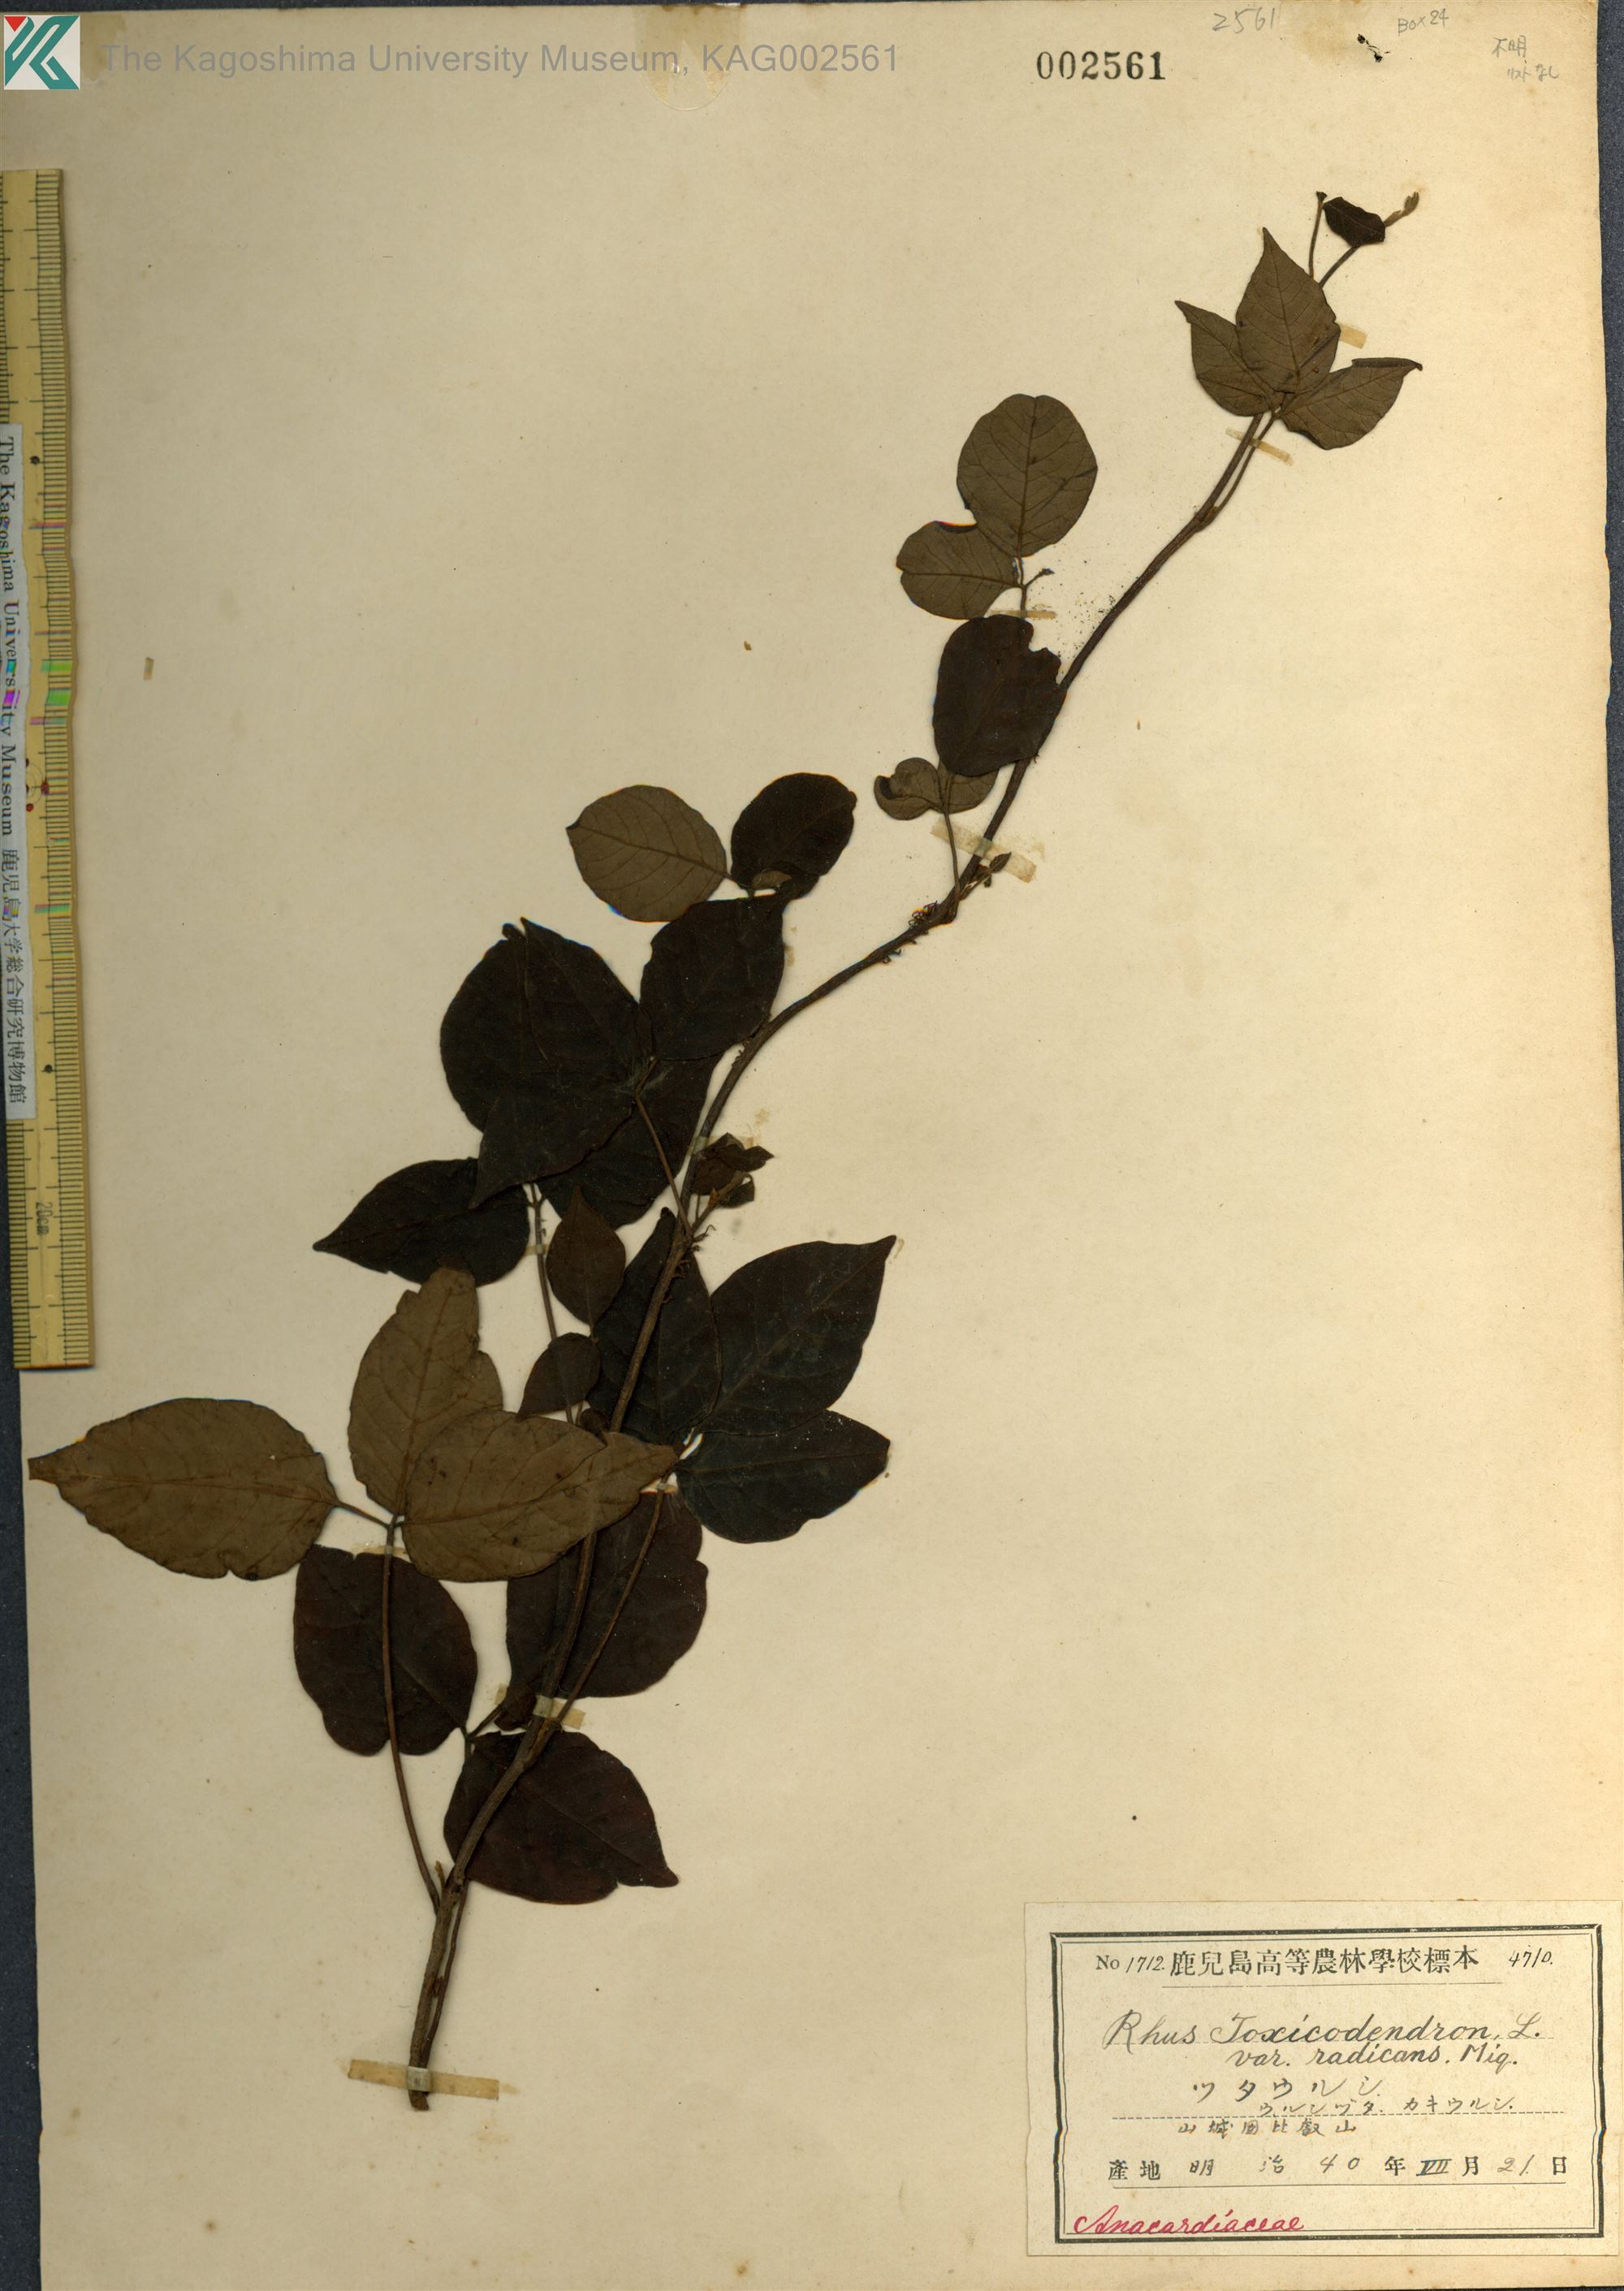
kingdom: Plantae
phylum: Tracheophyta
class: Magnoliopsida
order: Sapindales
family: Anacardiaceae
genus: Toxicodendron
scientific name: Toxicodendron orientale
